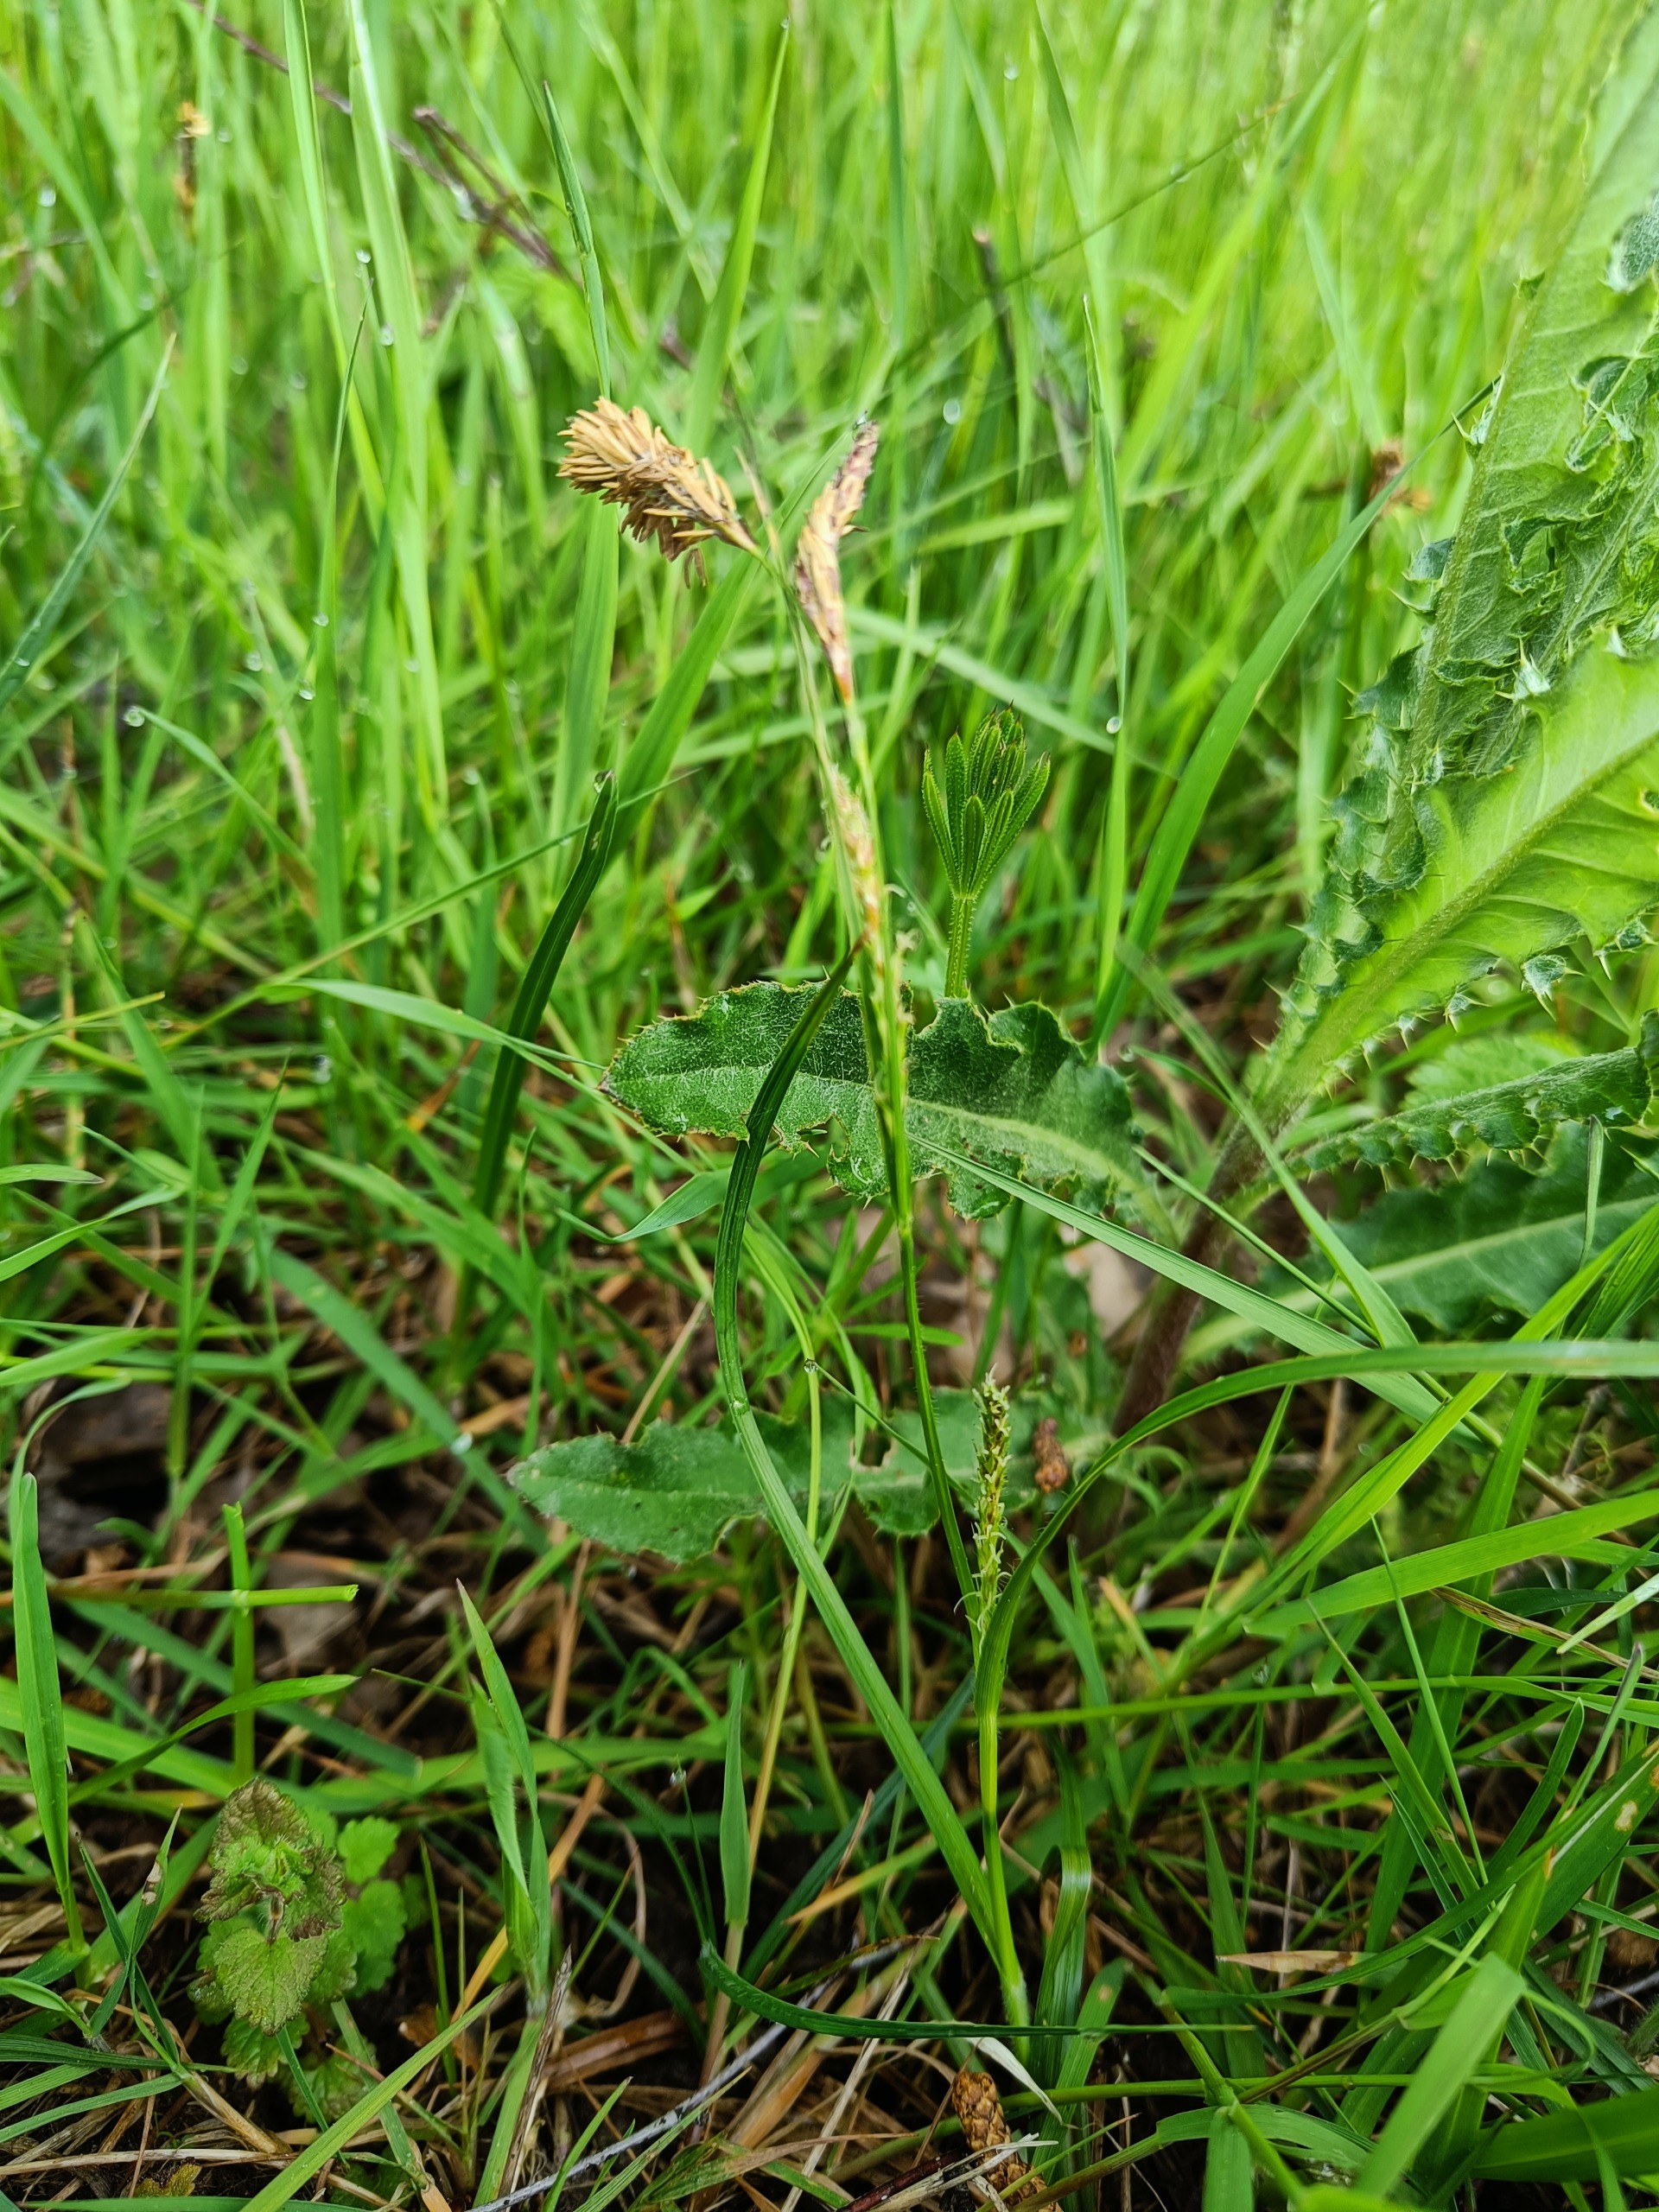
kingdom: Plantae
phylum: Tracheophyta
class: Liliopsida
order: Poales
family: Cyperaceae
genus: Carex
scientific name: Carex hirta
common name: Håret star
